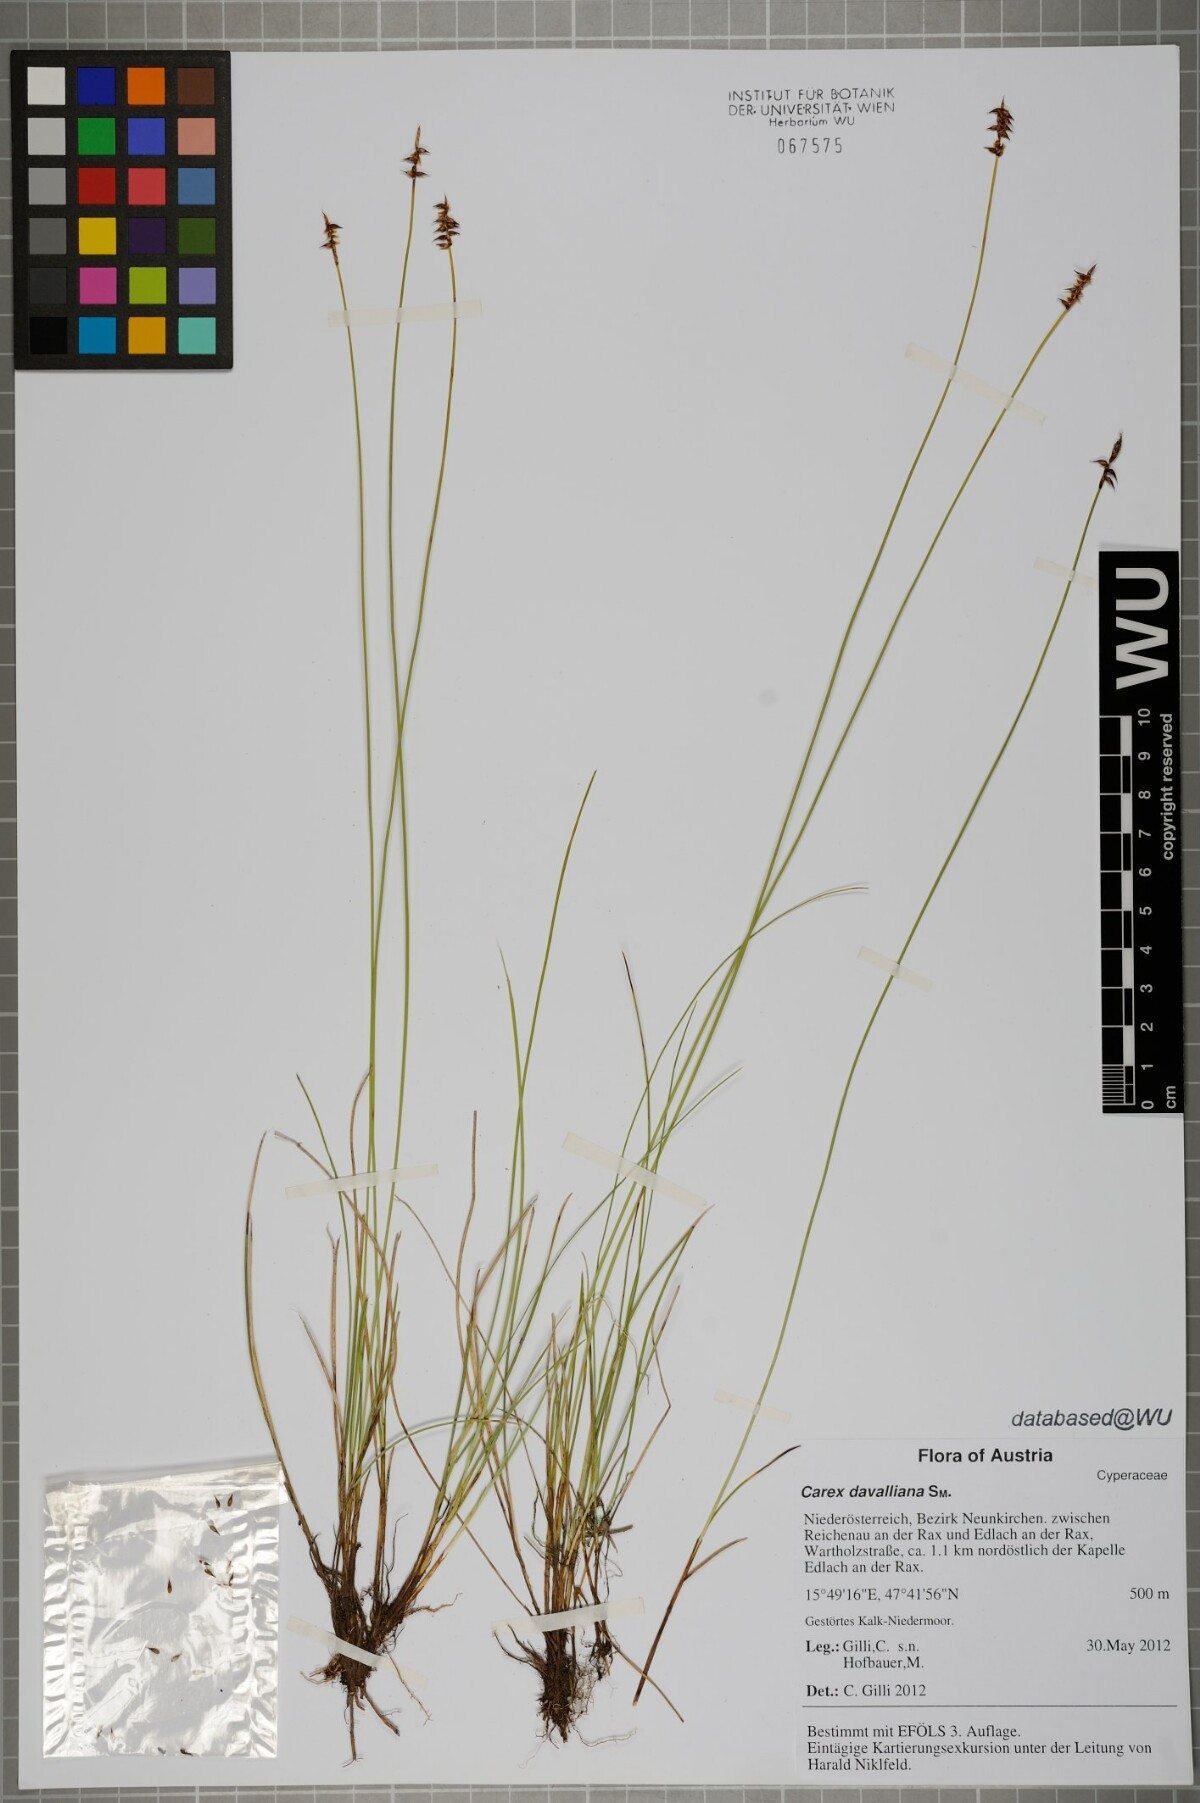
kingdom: Plantae
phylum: Tracheophyta
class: Liliopsida
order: Poales
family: Cyperaceae
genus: Carex
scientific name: Carex davalliana
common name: Davall's sedge
